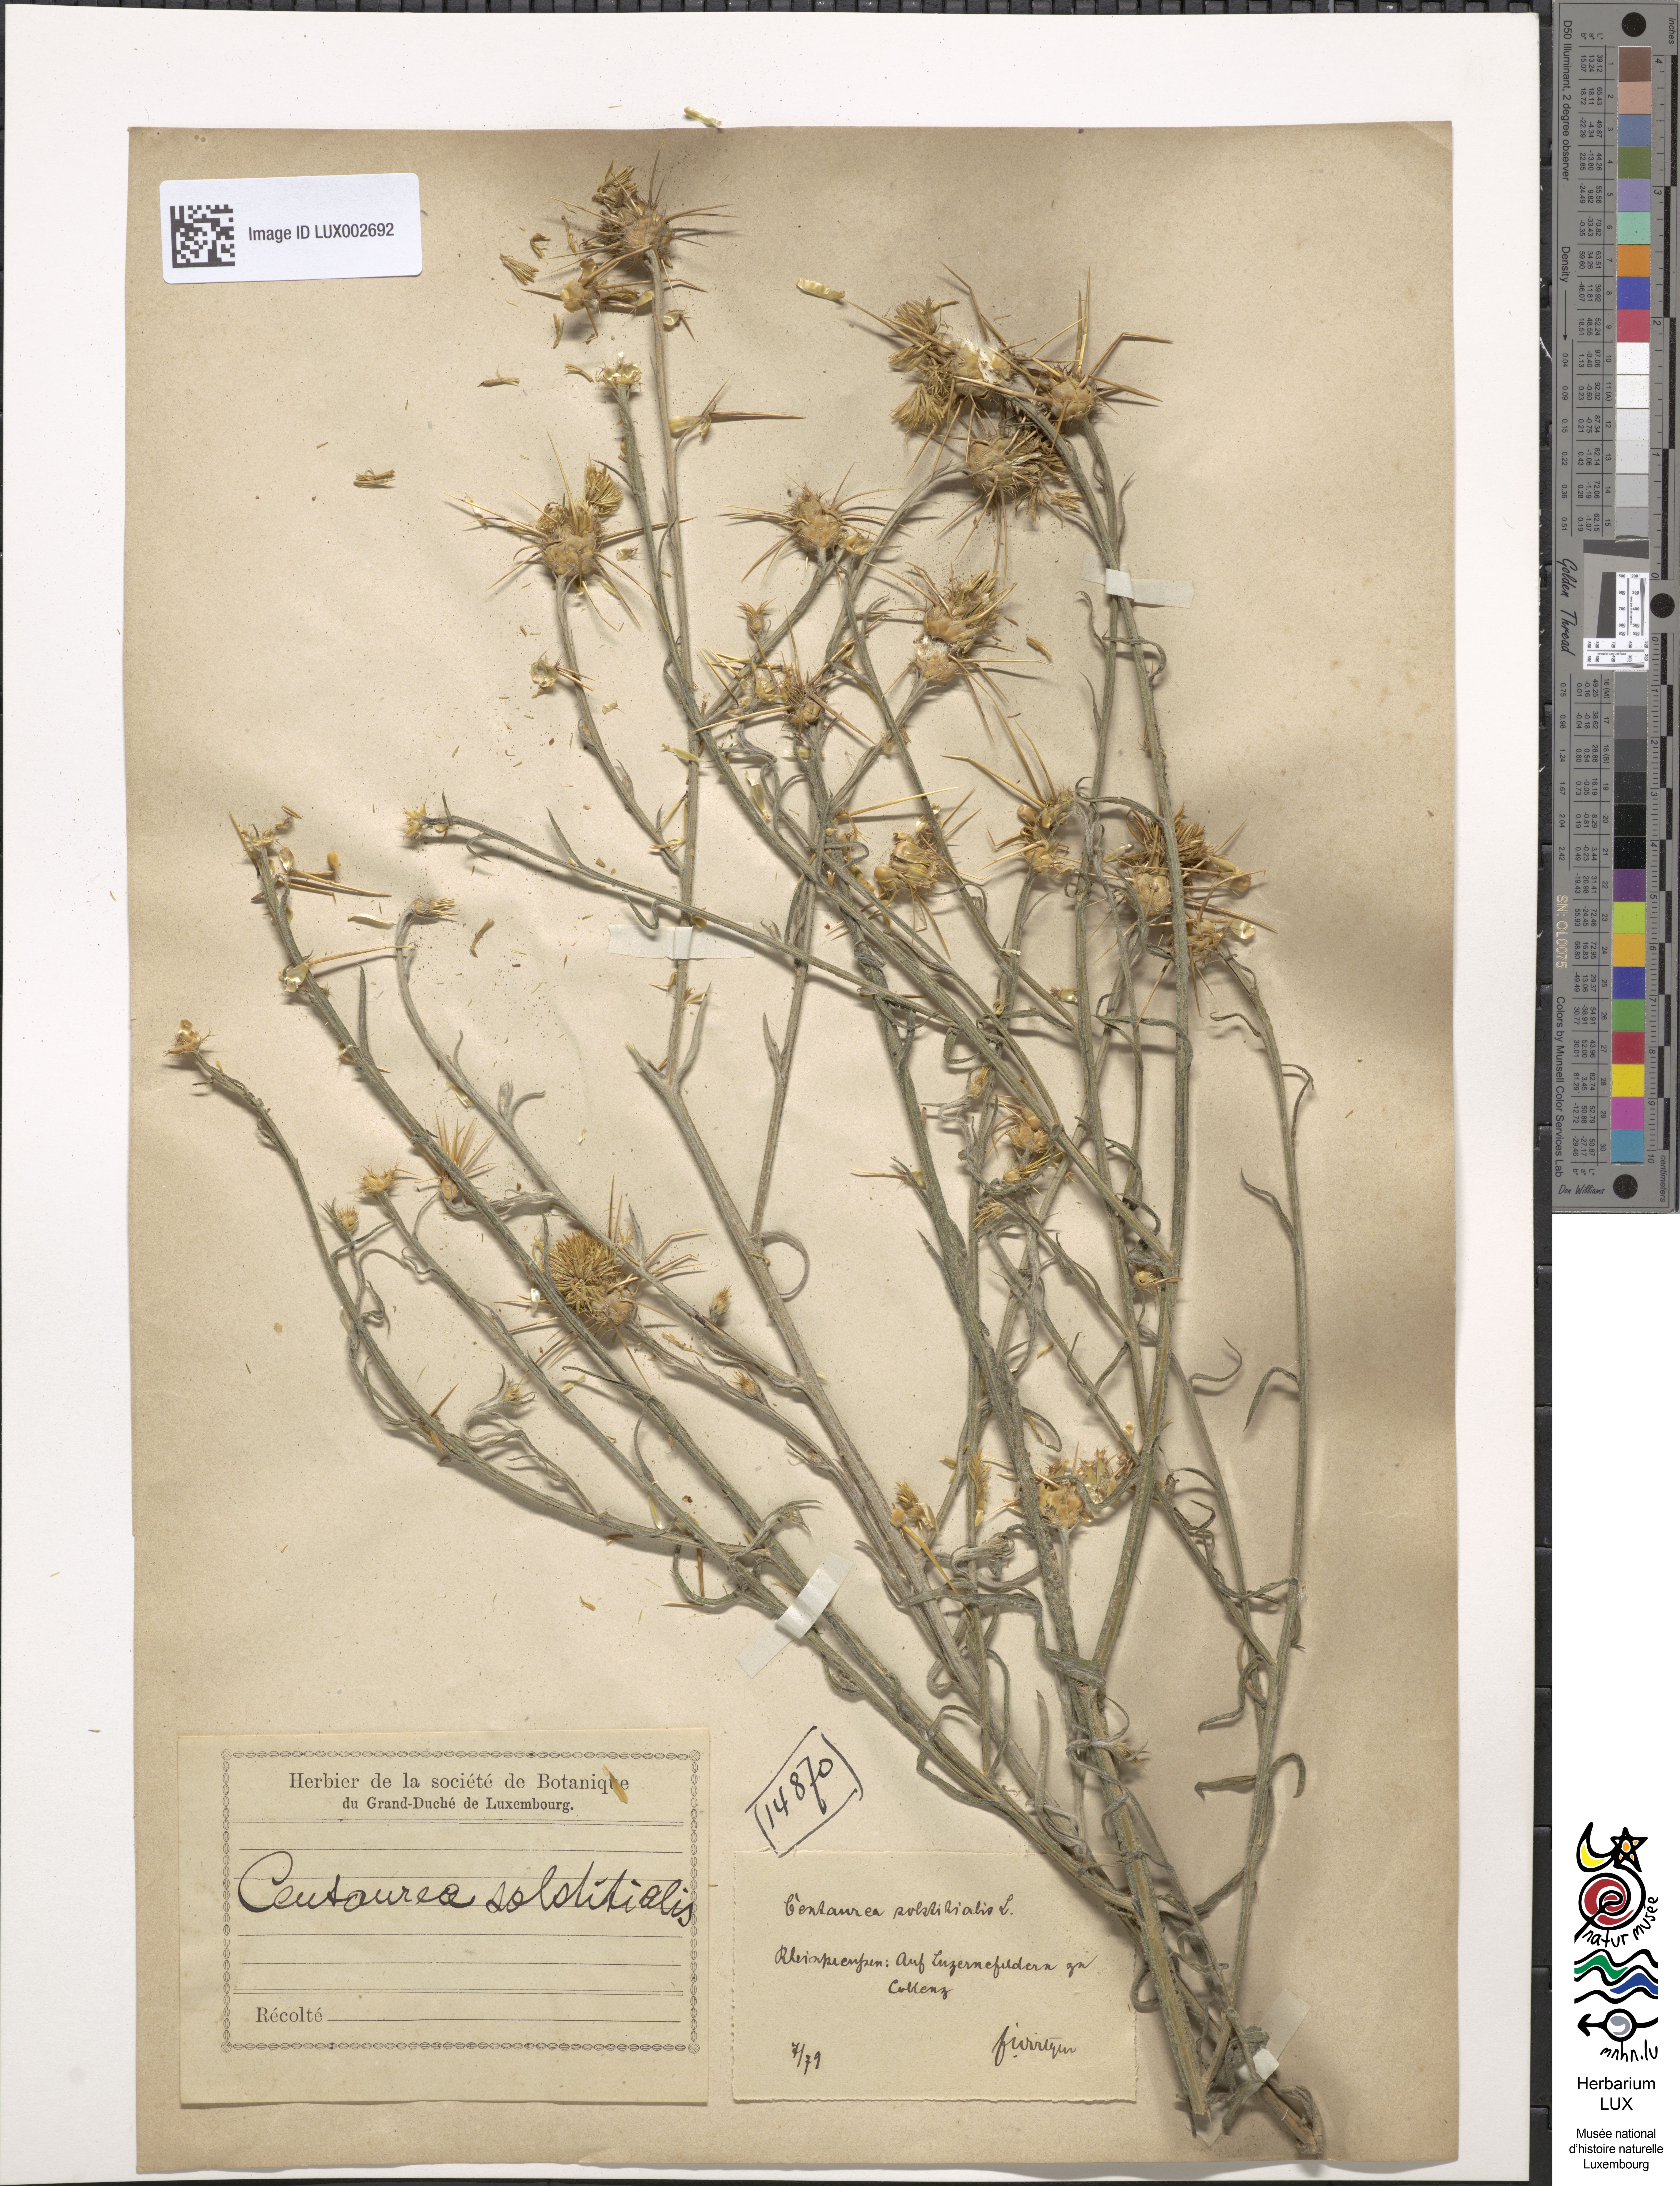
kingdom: Plantae
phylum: Tracheophyta
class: Magnoliopsida
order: Asterales
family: Asteraceae
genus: Centaurea
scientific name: Centaurea solstitialis
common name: Yellow star-thistle
